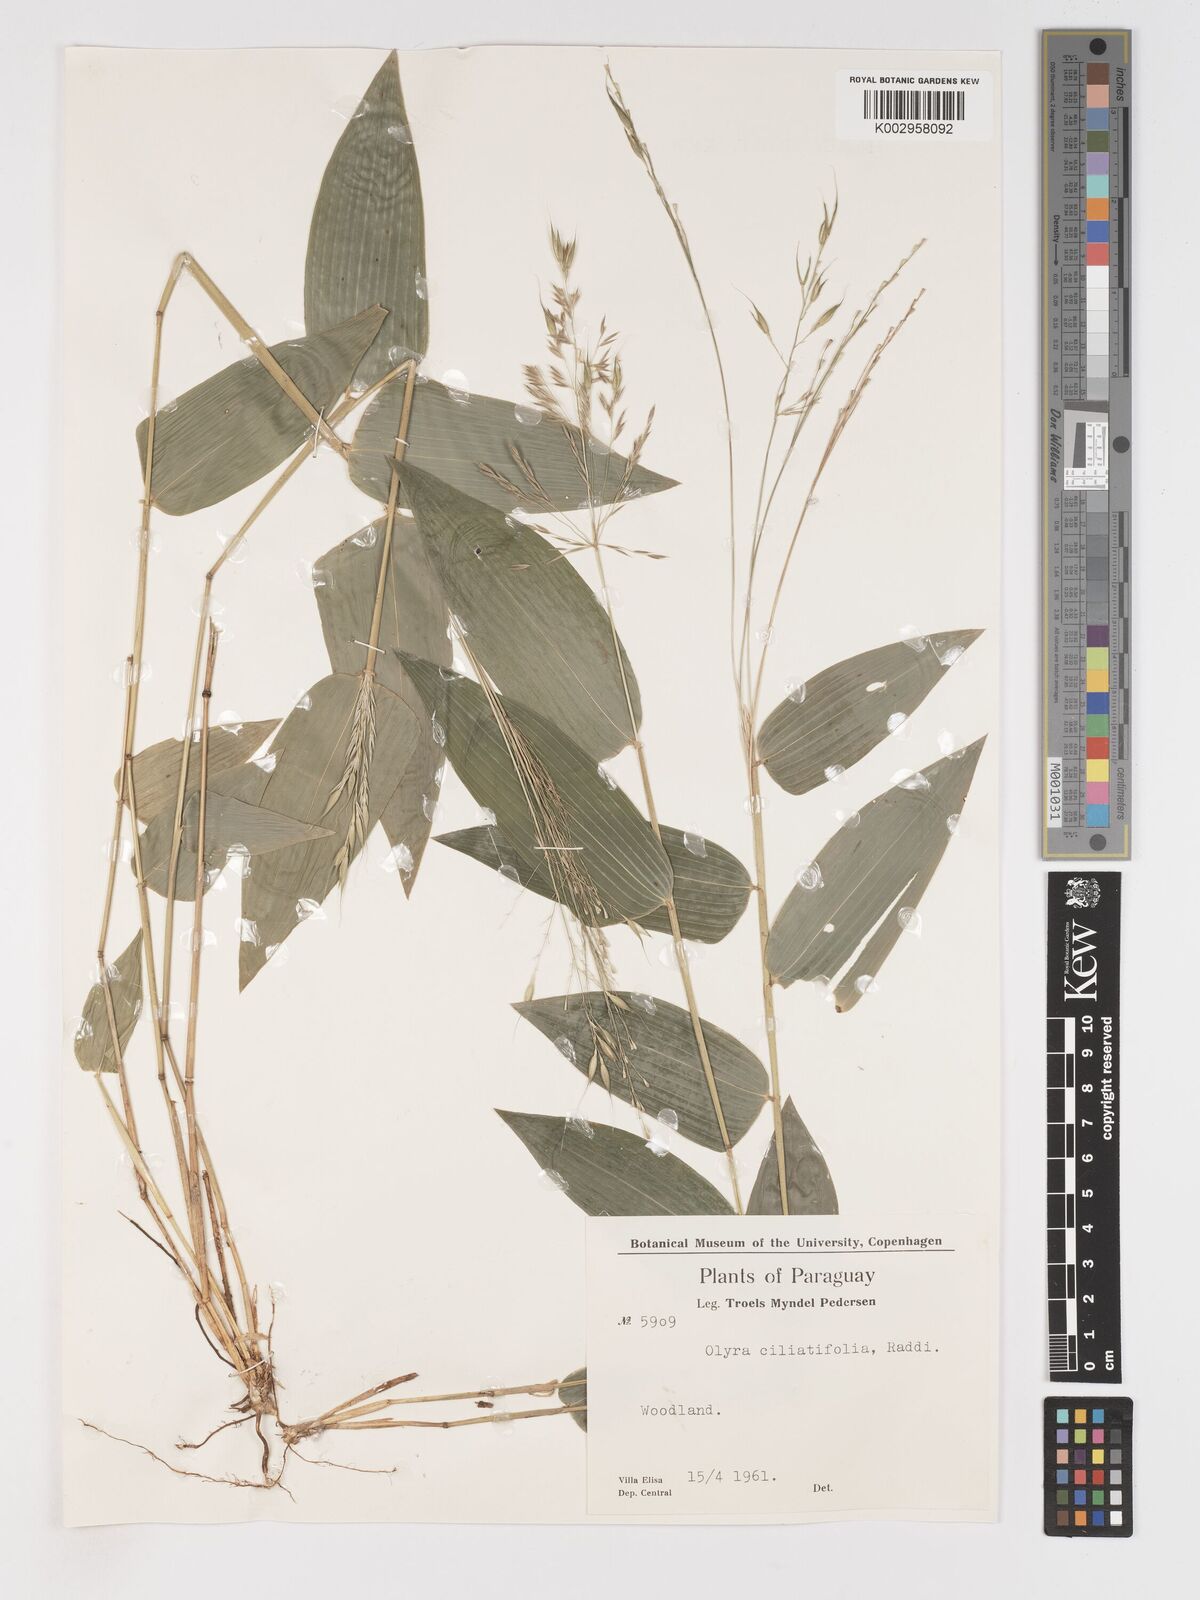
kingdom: Plantae
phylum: Tracheophyta
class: Liliopsida
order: Poales
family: Poaceae
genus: Olyra
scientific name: Olyra ciliatifolia
